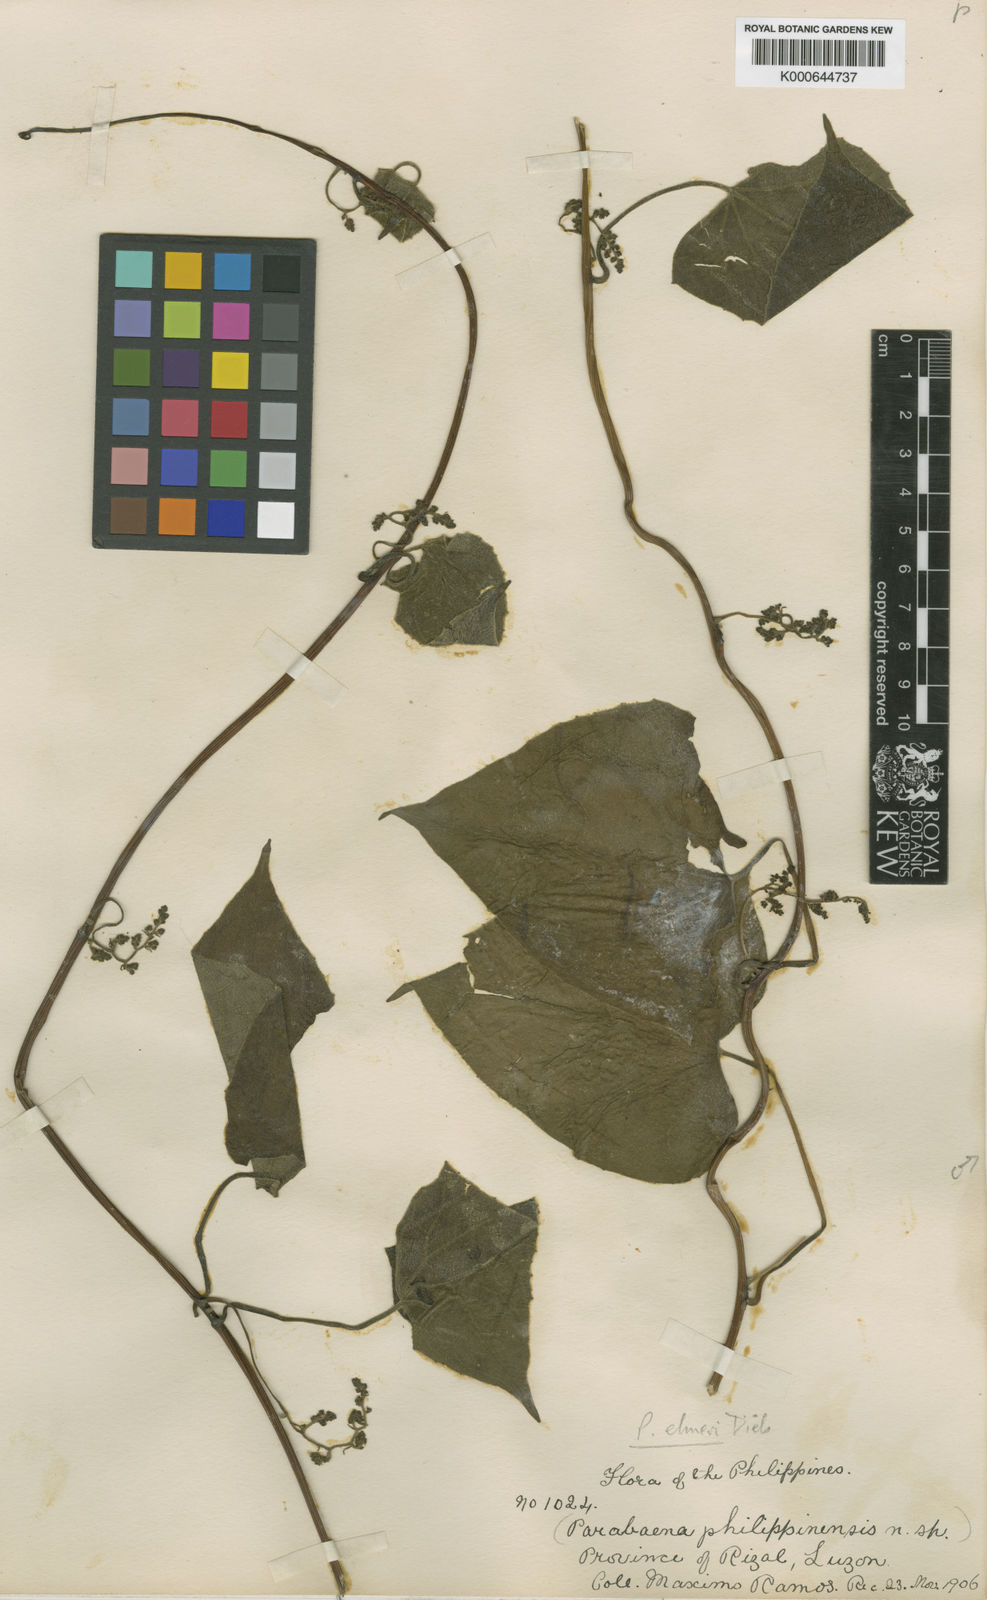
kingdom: Plantae
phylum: Tracheophyta
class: Magnoliopsida
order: Ranunculales
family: Menispermaceae
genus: Parabaena
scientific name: Parabaena elmeri
